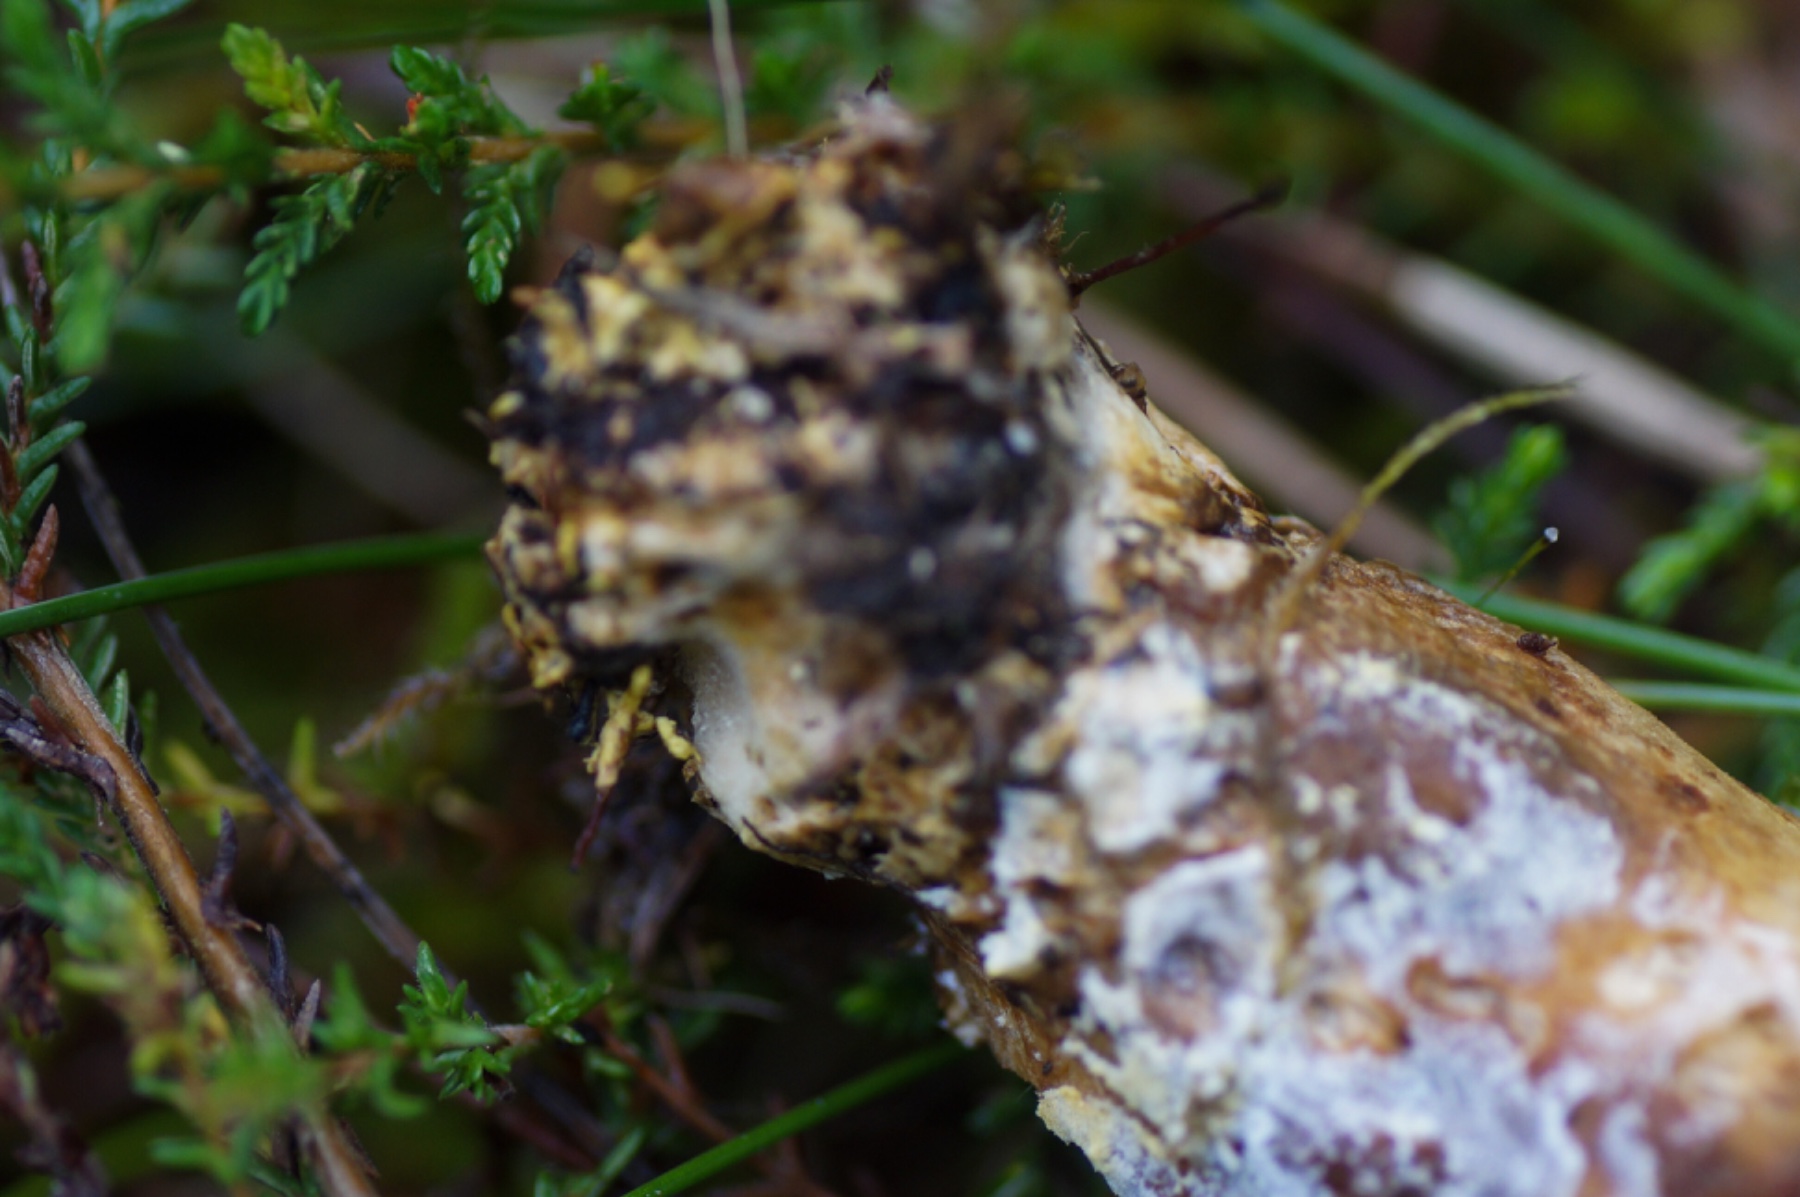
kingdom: Fungi
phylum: Basidiomycota
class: Agaricomycetes
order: Boletales
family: Boletaceae
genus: Xerocomus
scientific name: Xerocomus ferrugineus
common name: vaskeskinds-rørhat
